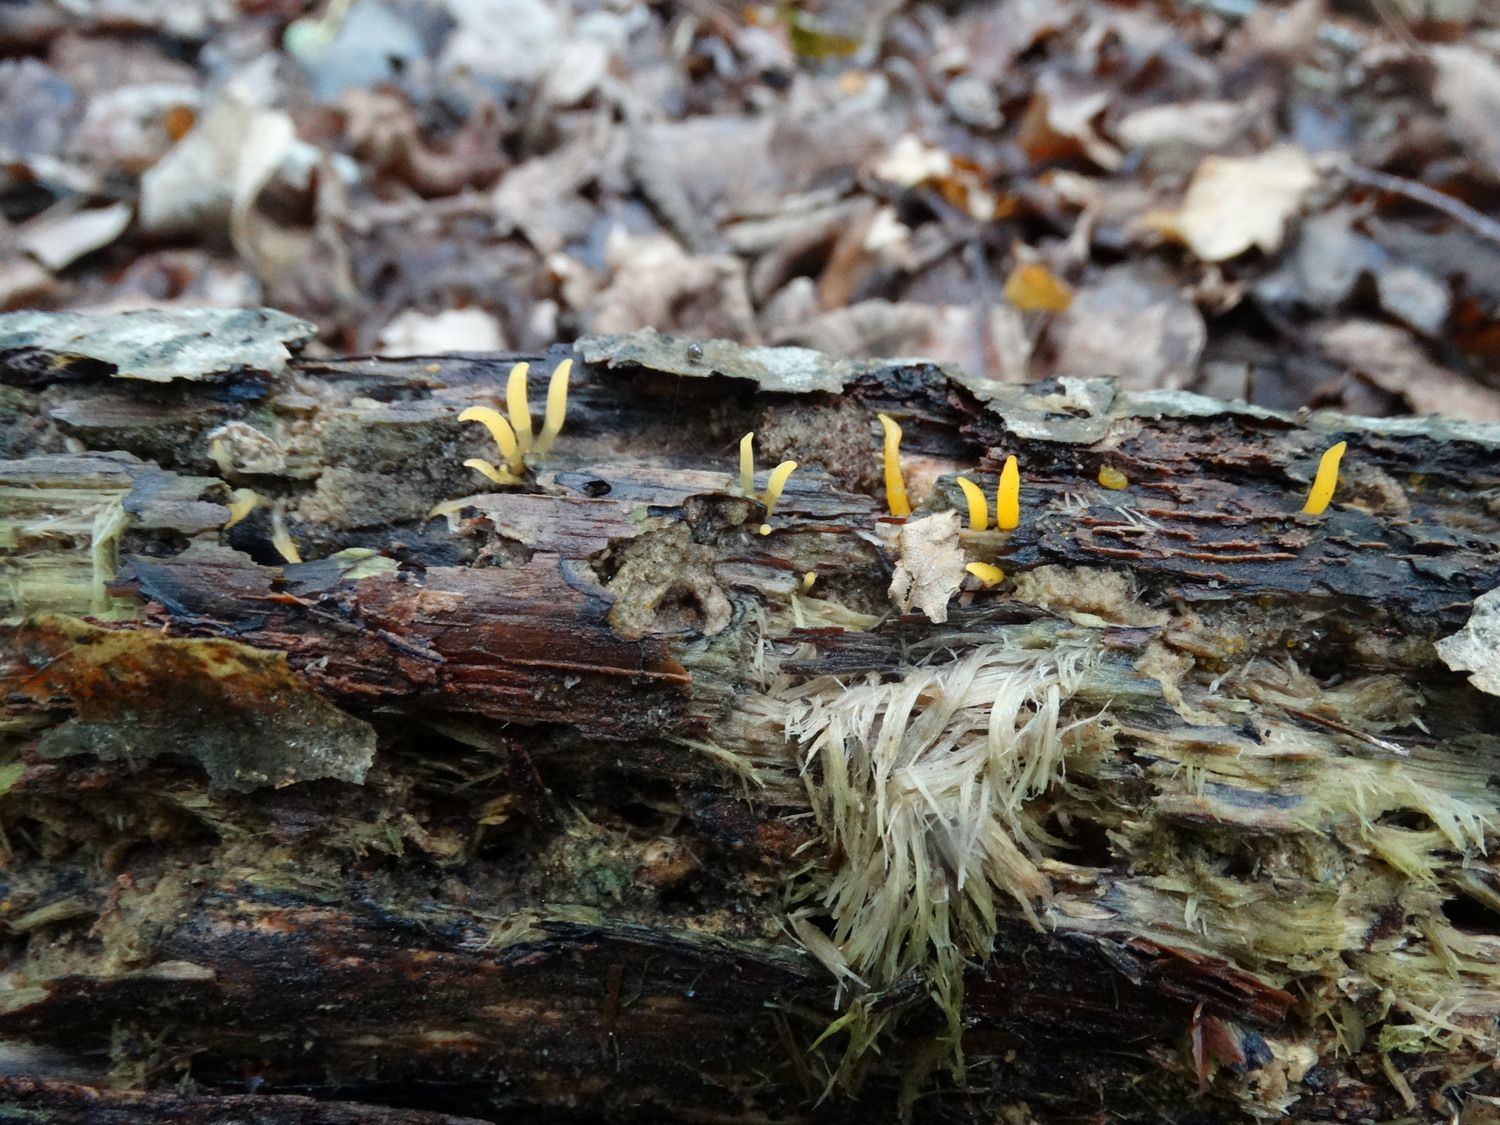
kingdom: Fungi
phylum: Basidiomycota
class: Dacrymycetes
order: Dacrymycetales
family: Dacrymycetaceae
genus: Calocera
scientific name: Calocera cornea
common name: liden guldgaffel
